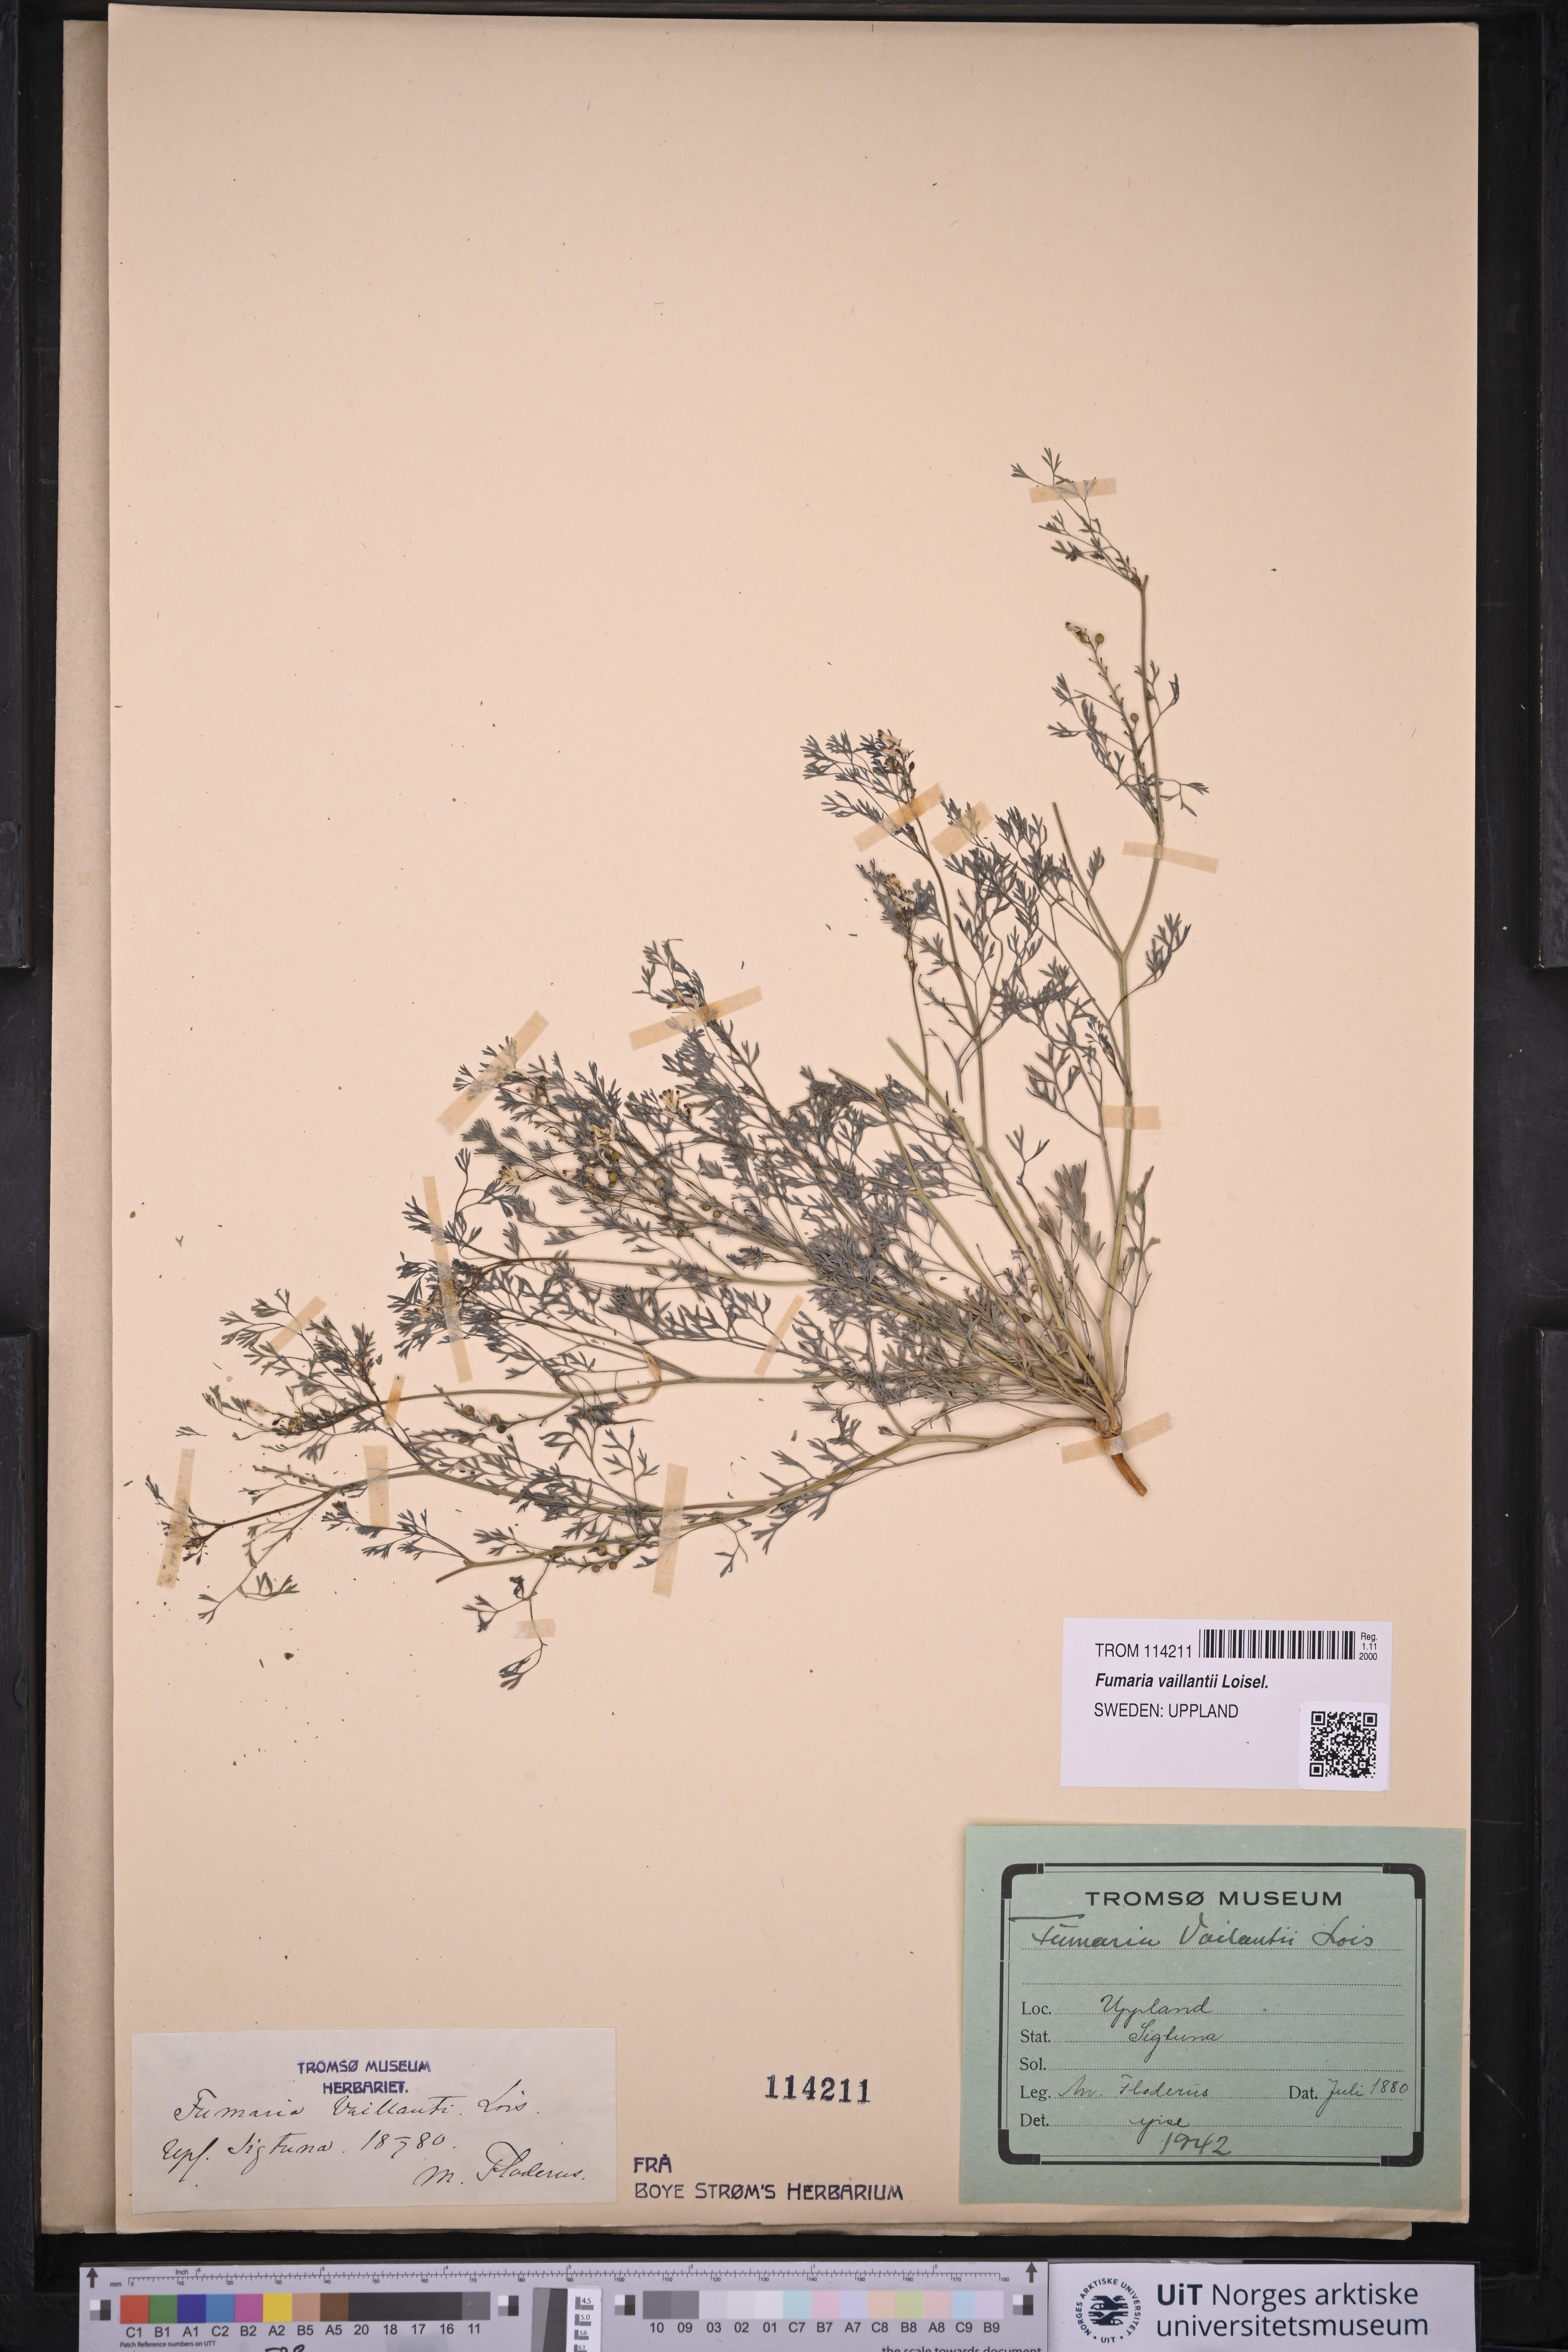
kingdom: Plantae
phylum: Tracheophyta
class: Magnoliopsida
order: Ranunculales
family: Papaveraceae
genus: Fumaria
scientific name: Fumaria vaillantii
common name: Few-flowered fumitory
